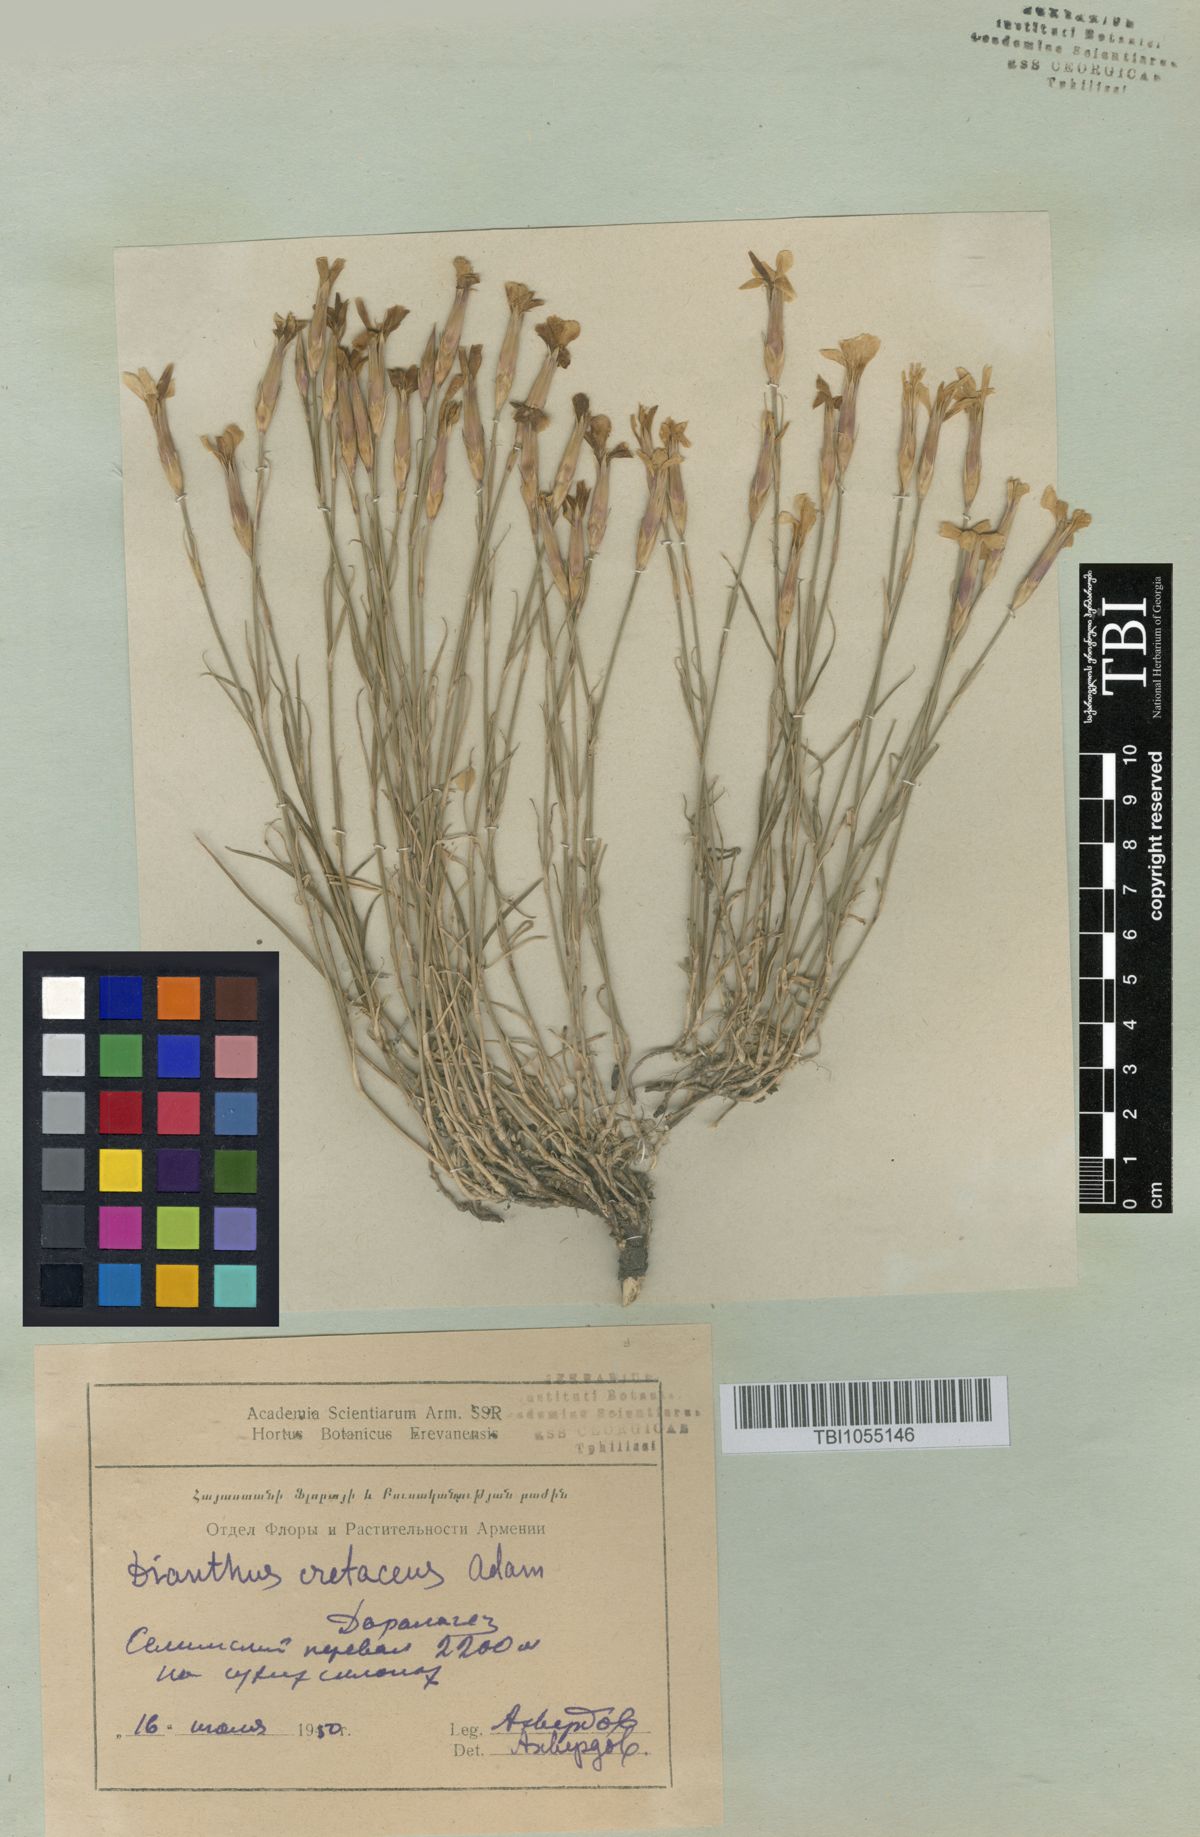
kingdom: Plantae
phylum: Tracheophyta
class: Magnoliopsida
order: Caryophyllales
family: Caryophyllaceae
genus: Dianthus
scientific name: Dianthus cretaceus
